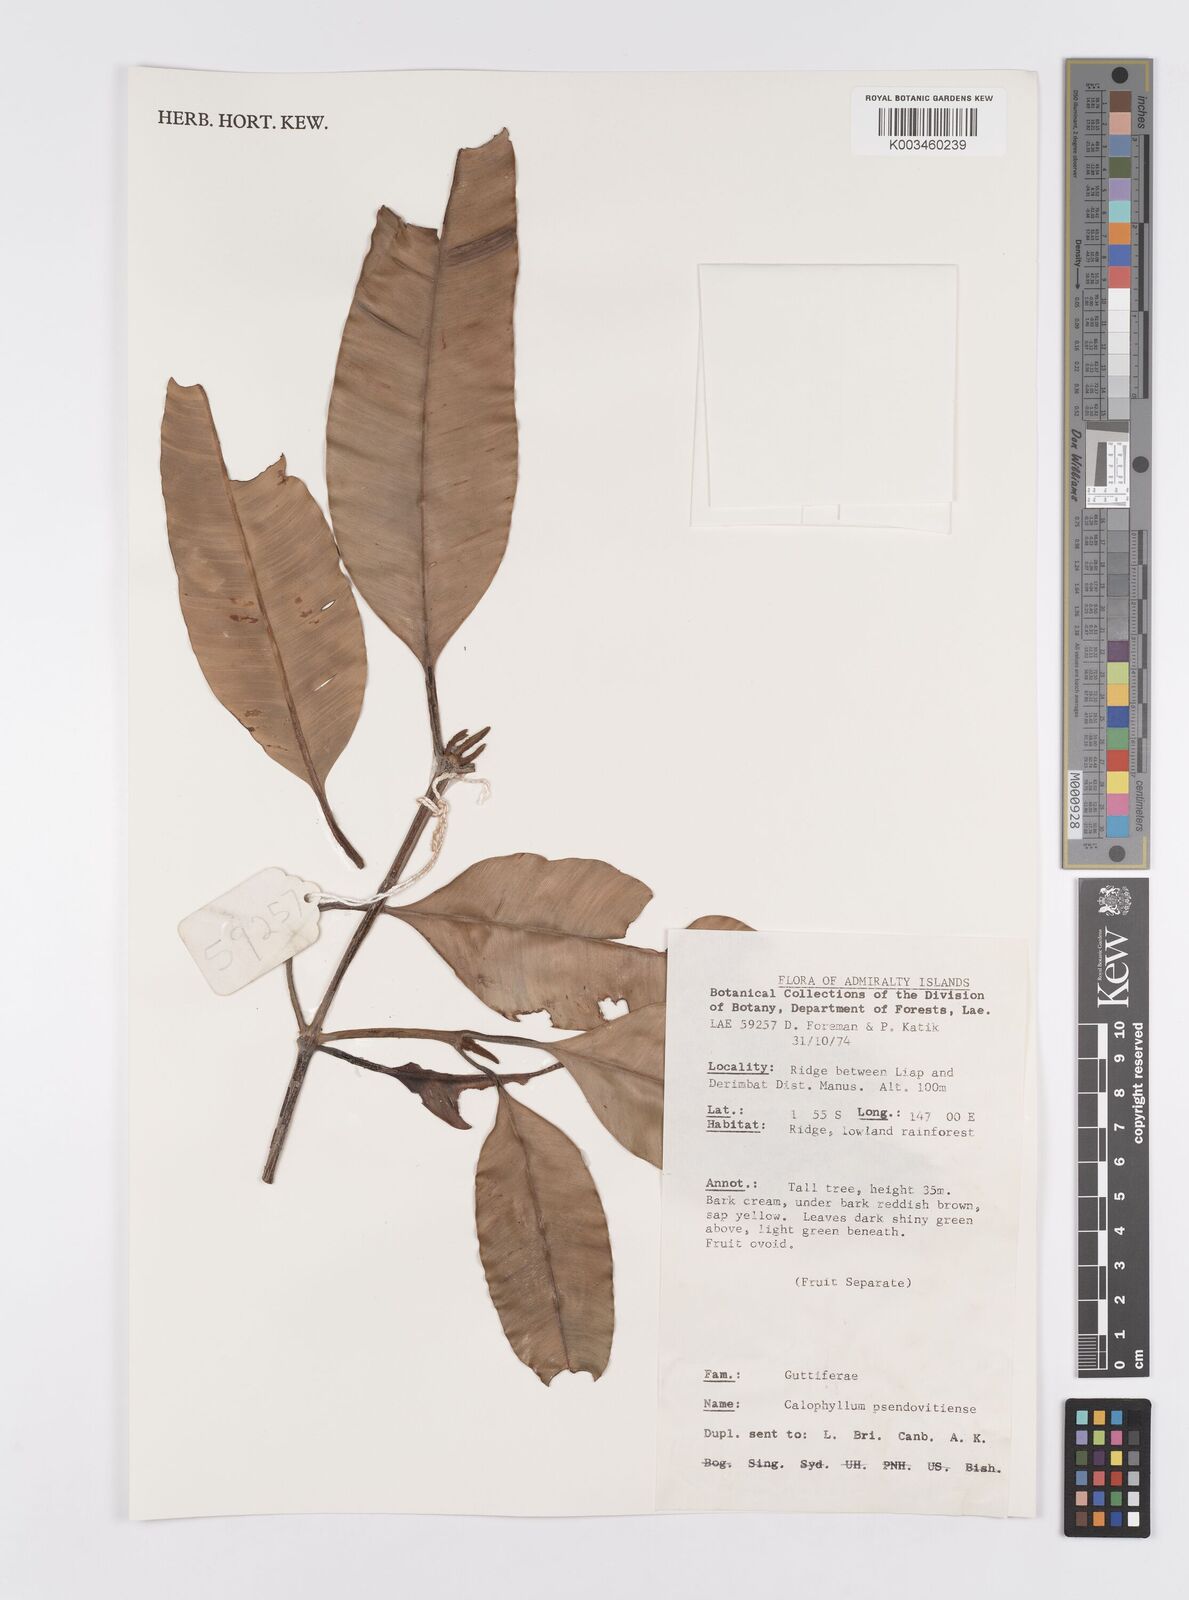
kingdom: Plantae
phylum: Tracheophyta
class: Magnoliopsida
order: Malpighiales
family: Calophyllaceae
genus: Calophyllum
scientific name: Calophyllum neoebudicum
